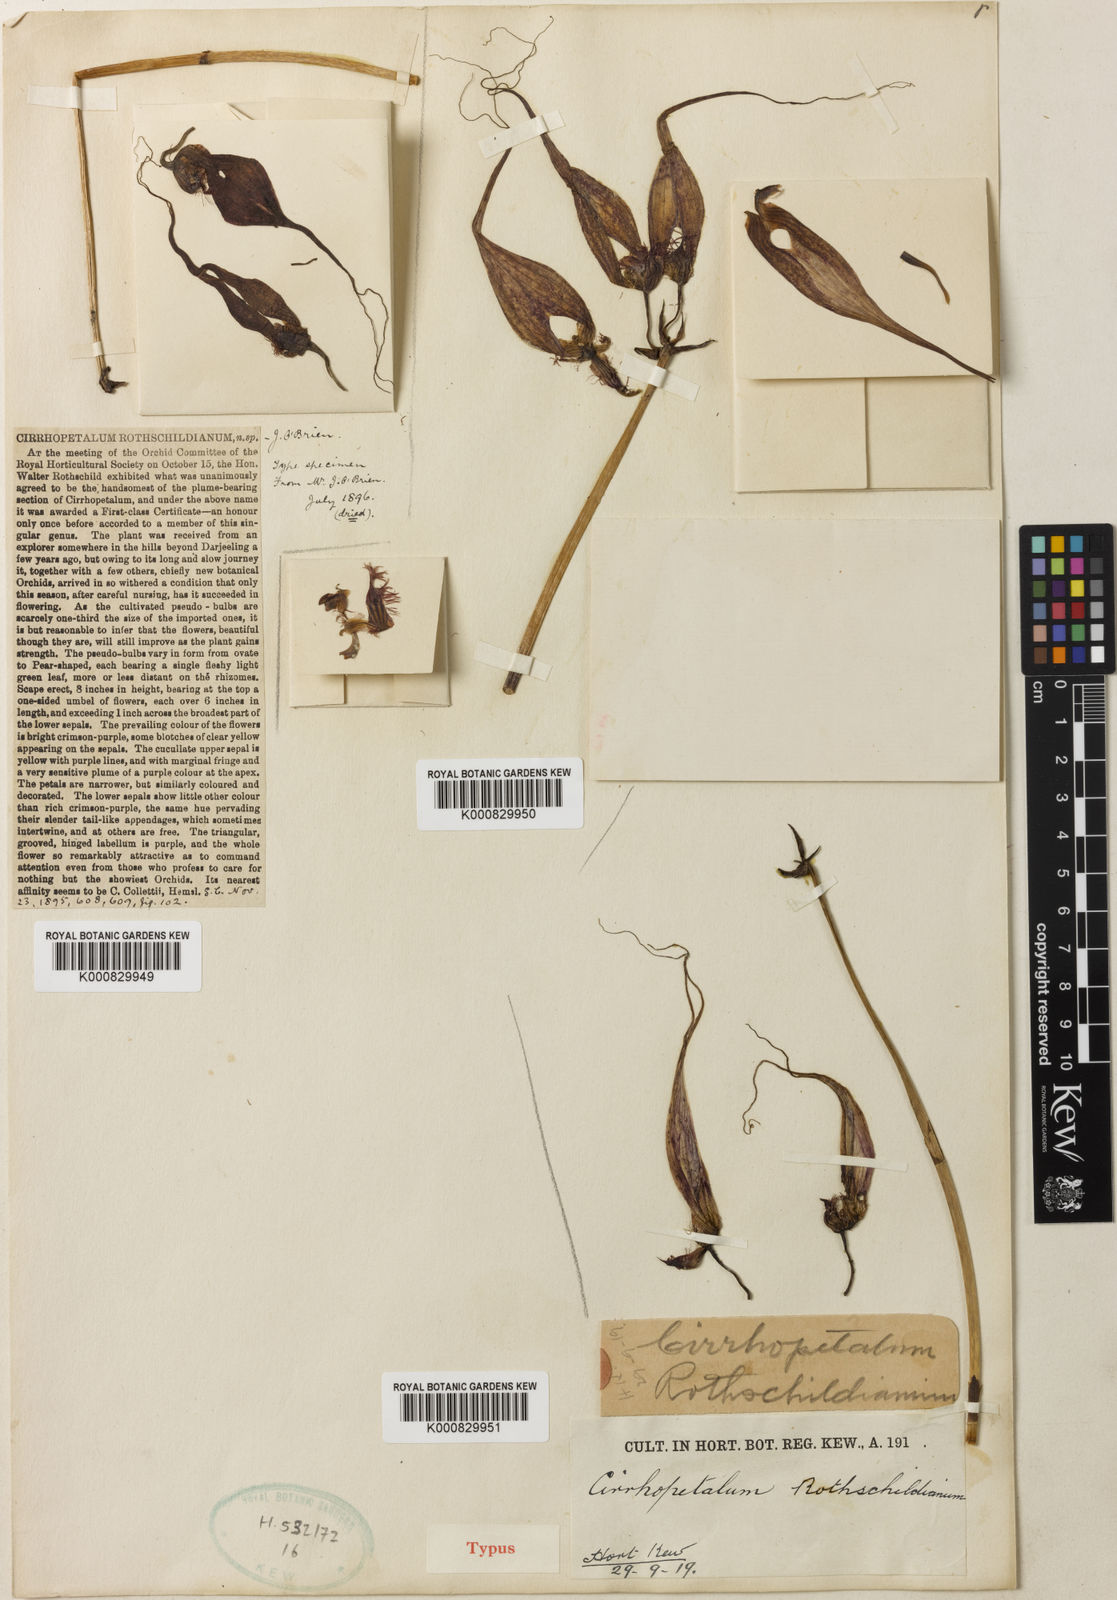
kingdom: Plantae
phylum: Tracheophyta
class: Liliopsida
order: Asparagales
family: Orchidaceae
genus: Bulbophyllum
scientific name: Bulbophyllum rothschildianum
